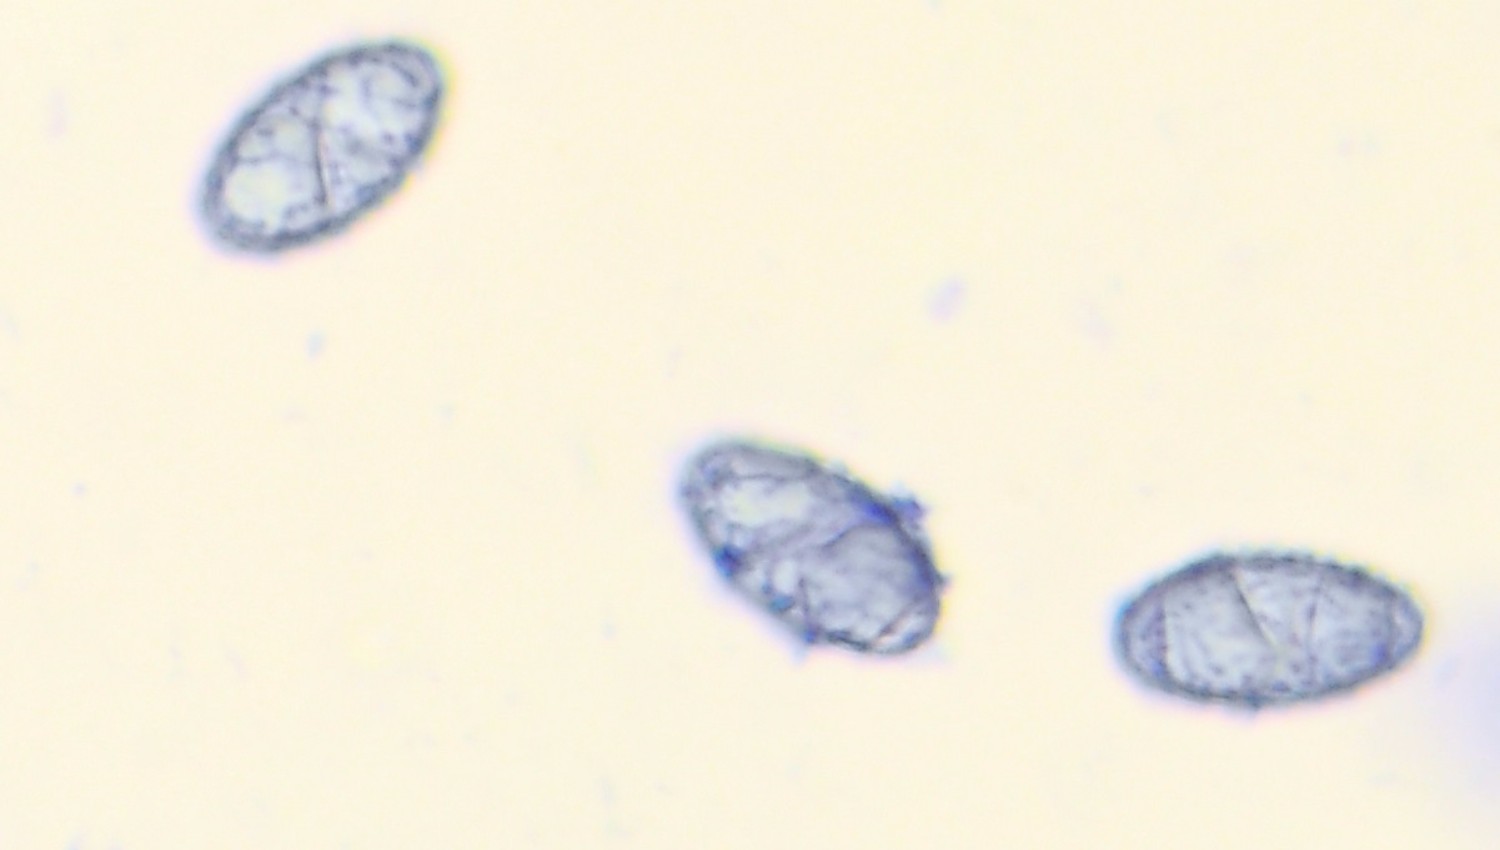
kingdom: Fungi
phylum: Ascomycota
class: Pezizomycetes
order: Pezizales
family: Pyronemataceae
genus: Neottiella
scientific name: Neottiella rutilans
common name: jomfruhår-mosbæger
